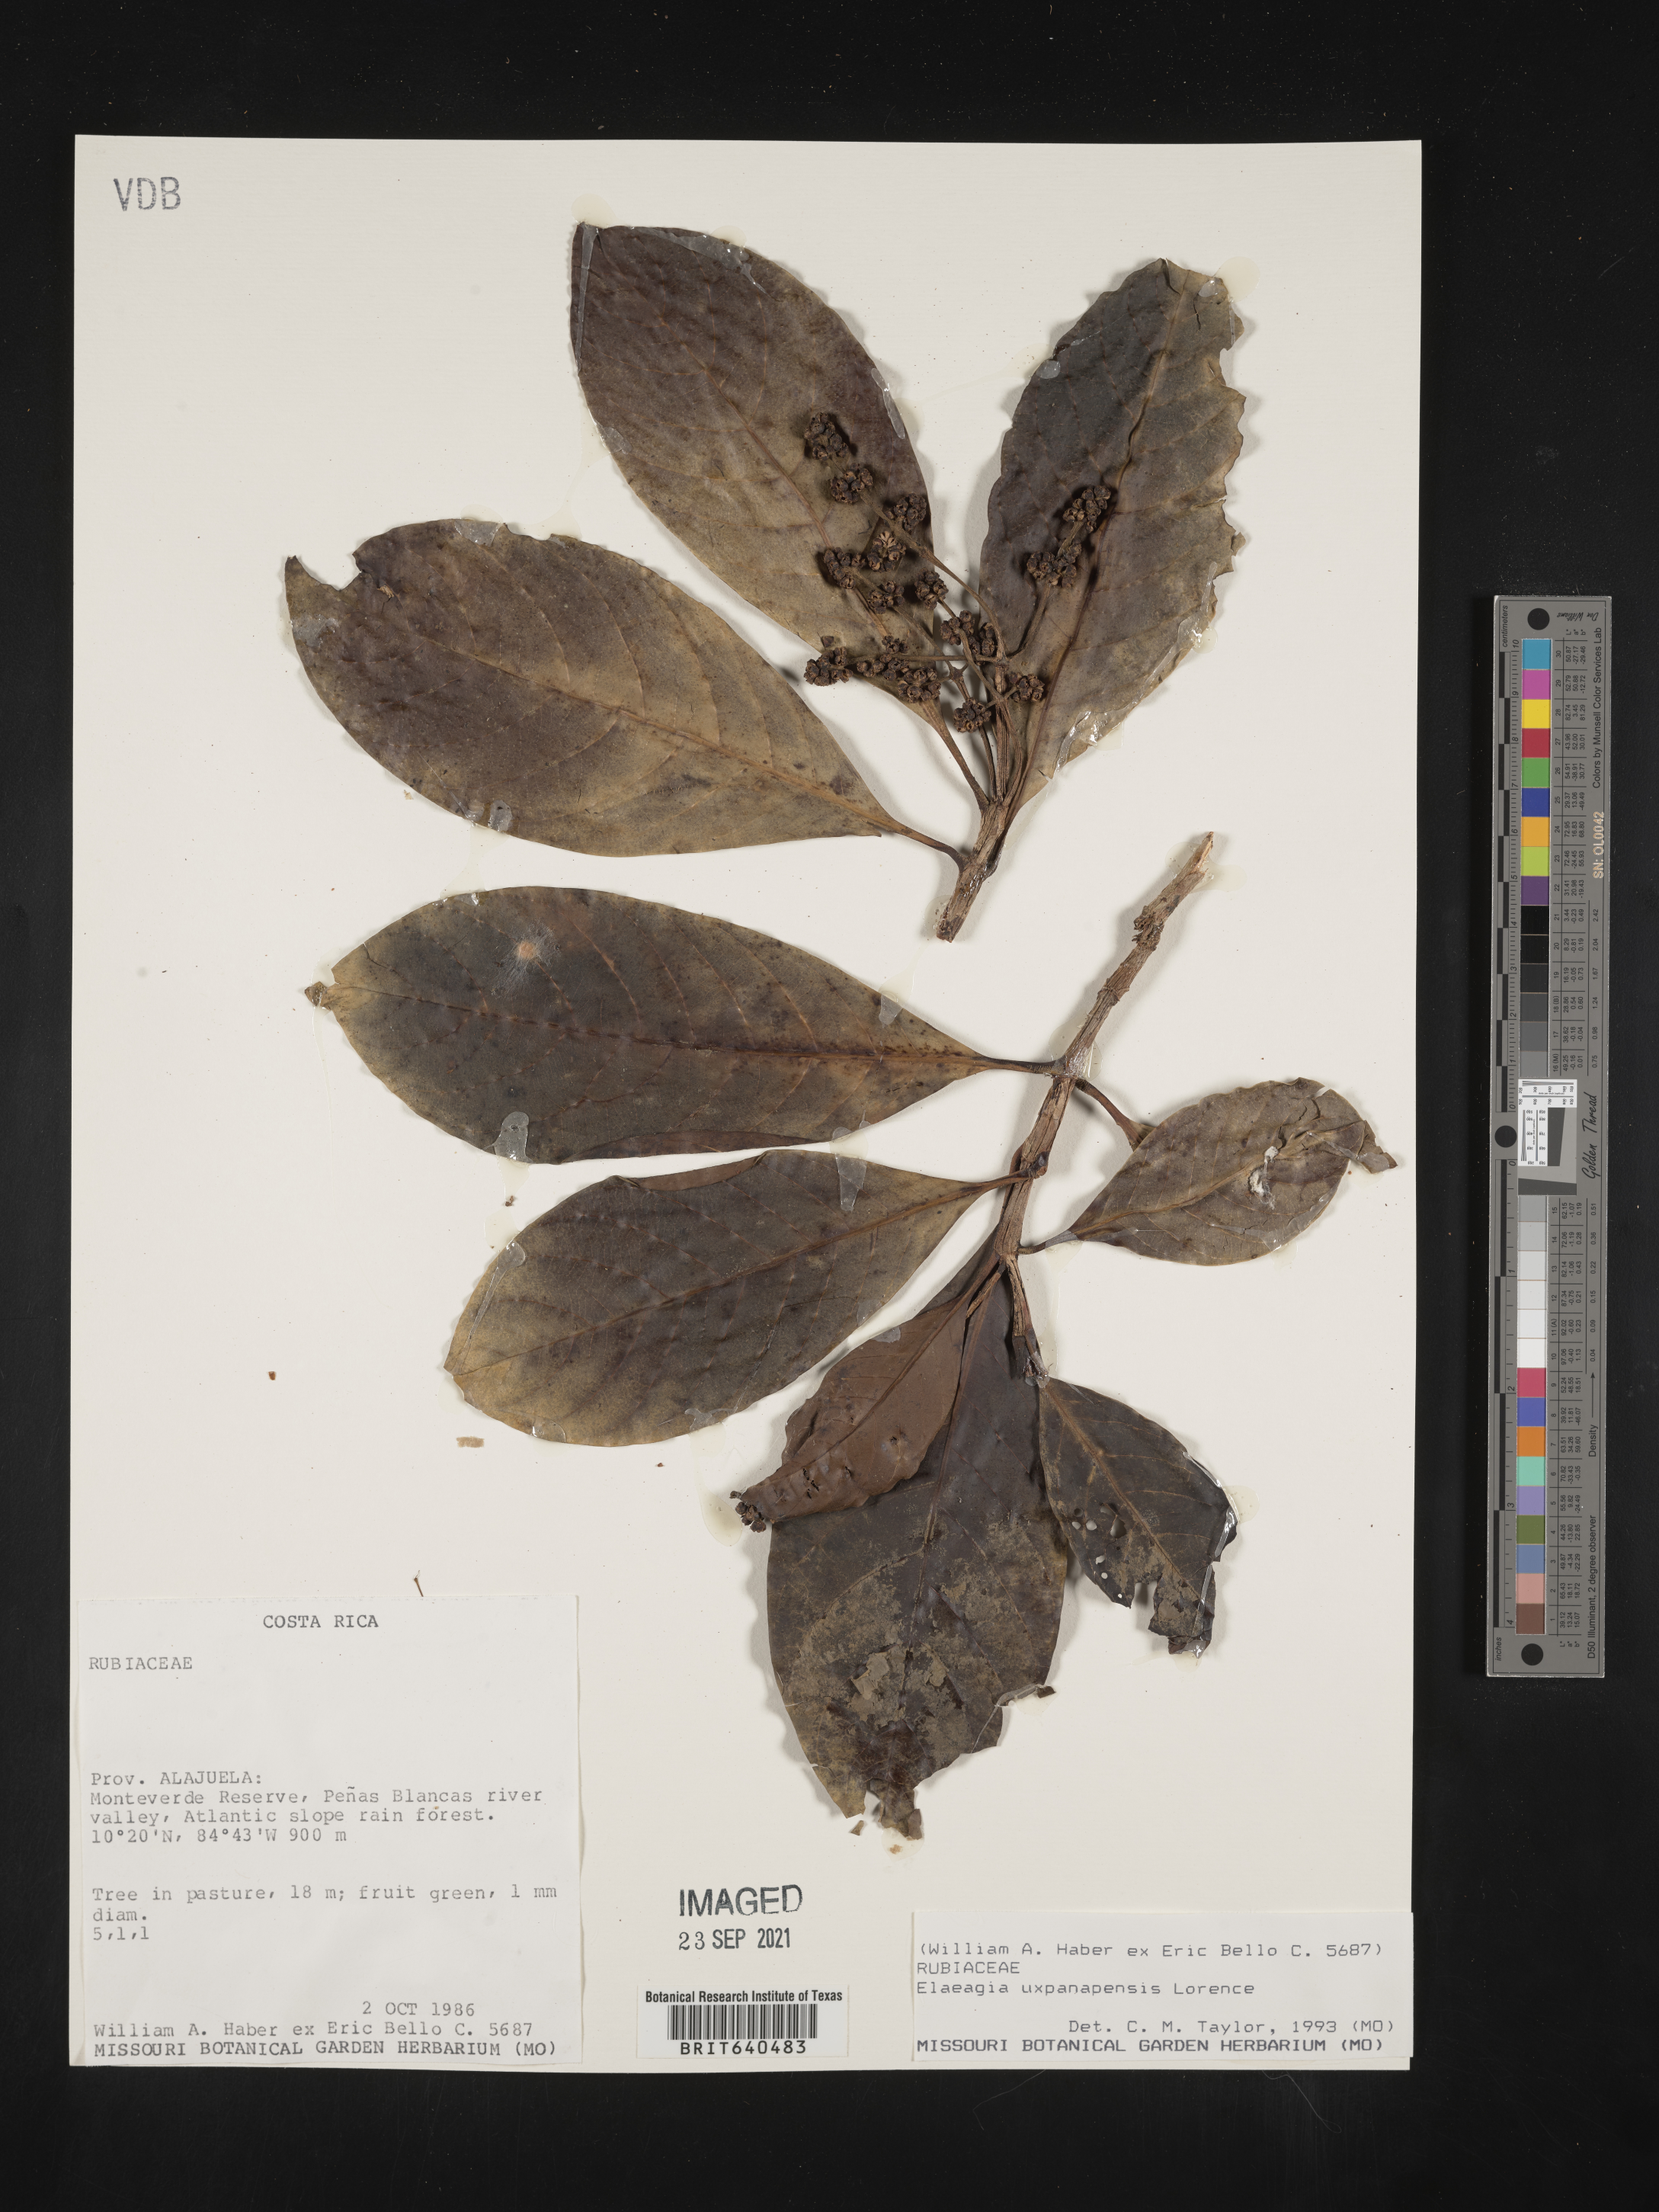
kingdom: Plantae
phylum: Tracheophyta
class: Magnoliopsida
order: Gentianales
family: Rubiaceae
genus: Elaeagia
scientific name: Elaeagia
